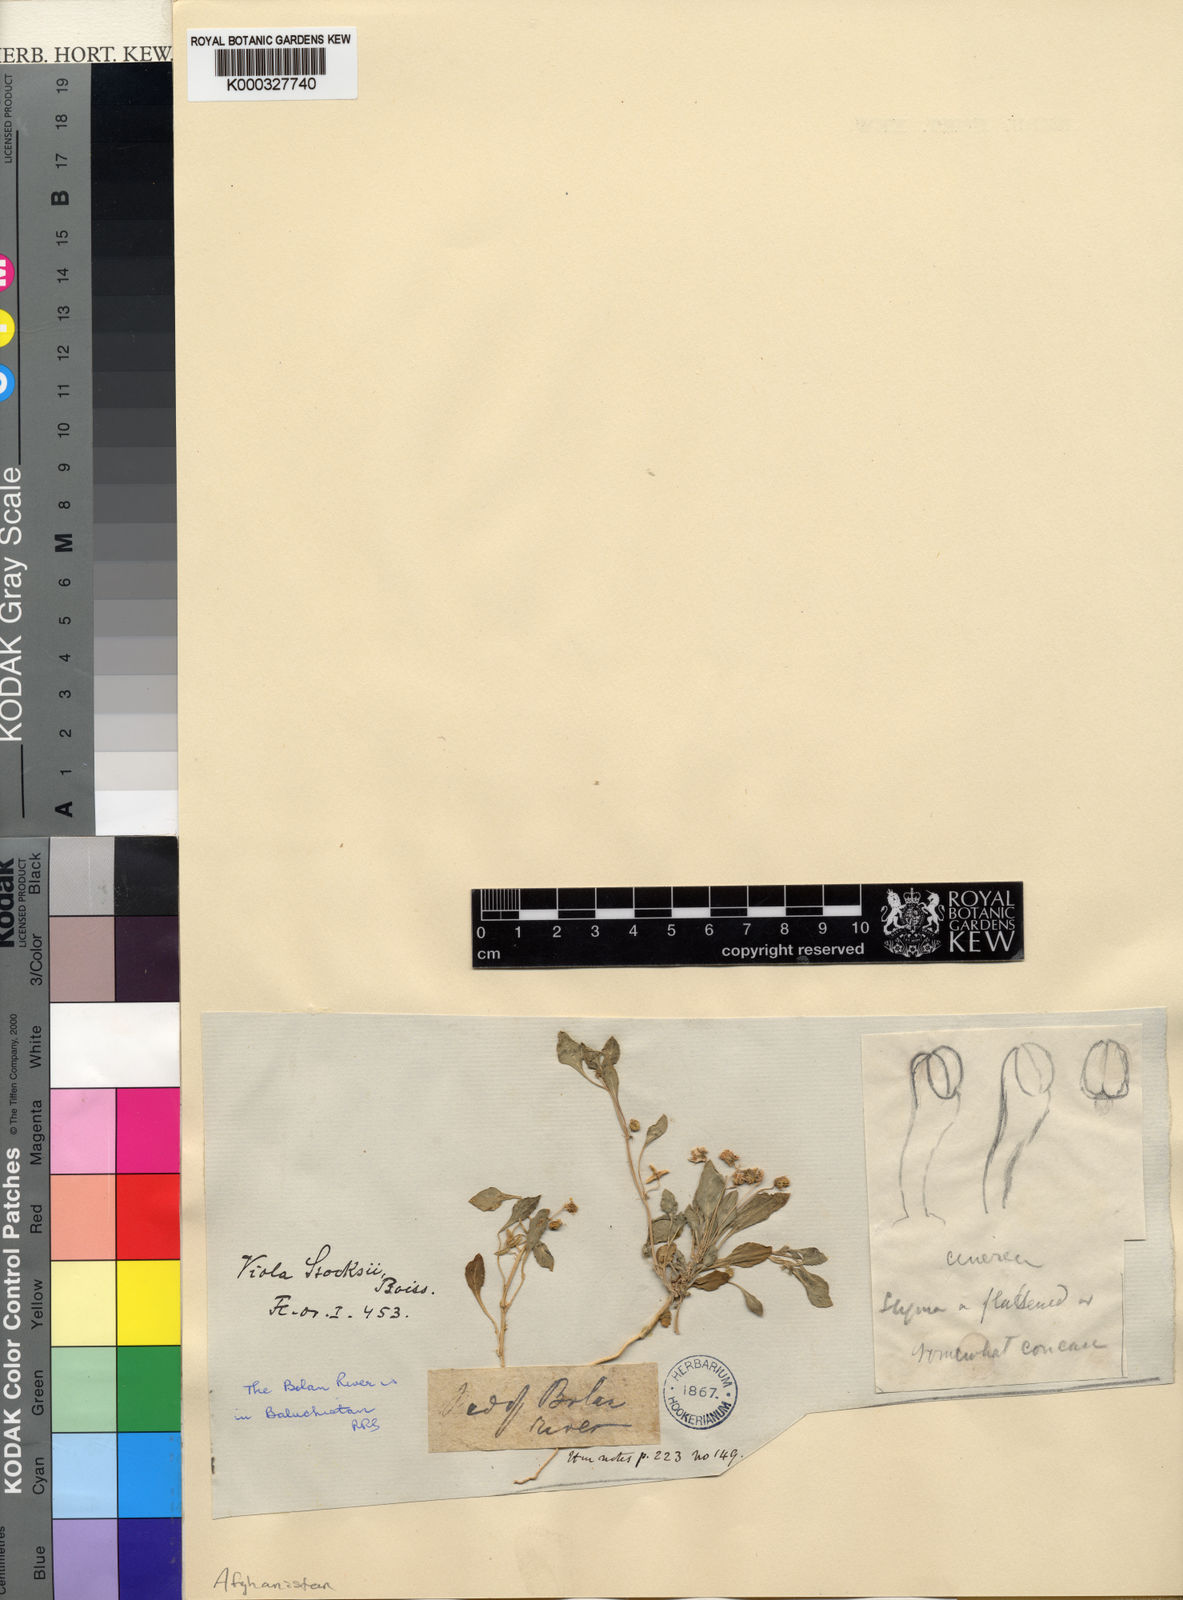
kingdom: Plantae
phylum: Tracheophyta
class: Magnoliopsida
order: Malpighiales
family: Violaceae
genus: Viola
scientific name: Viola cinerea
